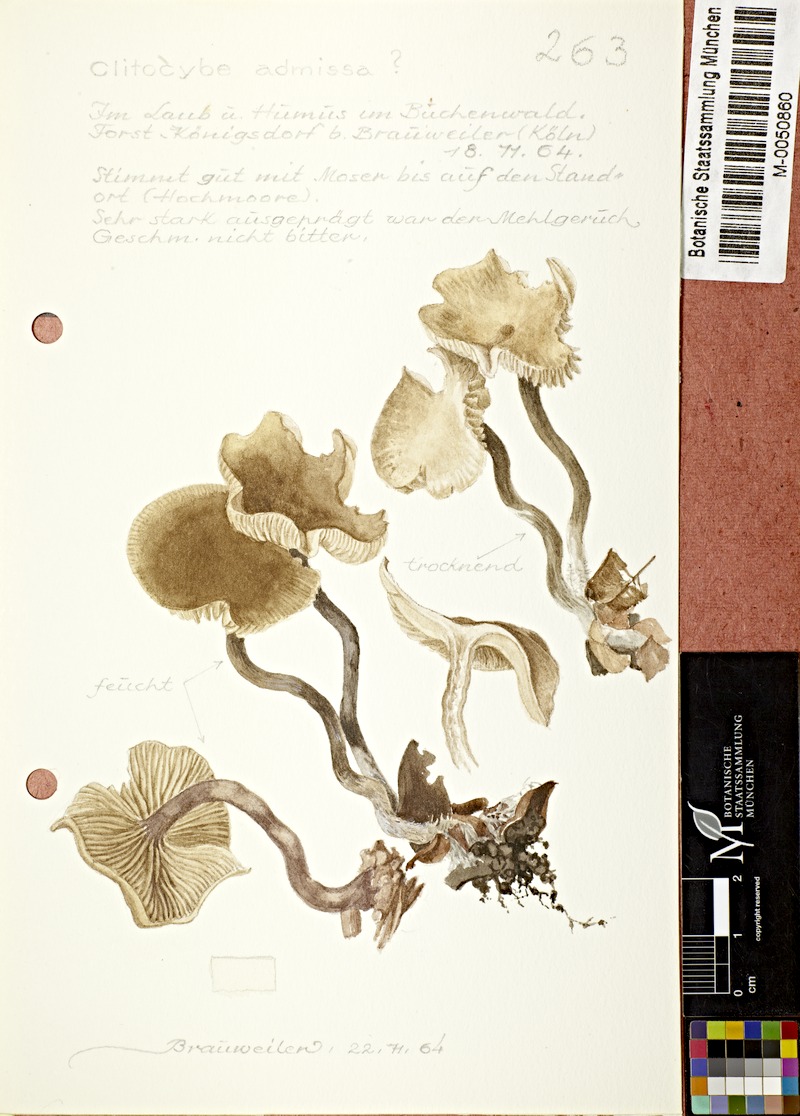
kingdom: Fungi
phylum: Basidiomycota
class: Agaricomycetes
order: Agaricales
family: Lyophyllaceae
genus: Lyophyllum
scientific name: Lyophyllum admissum
